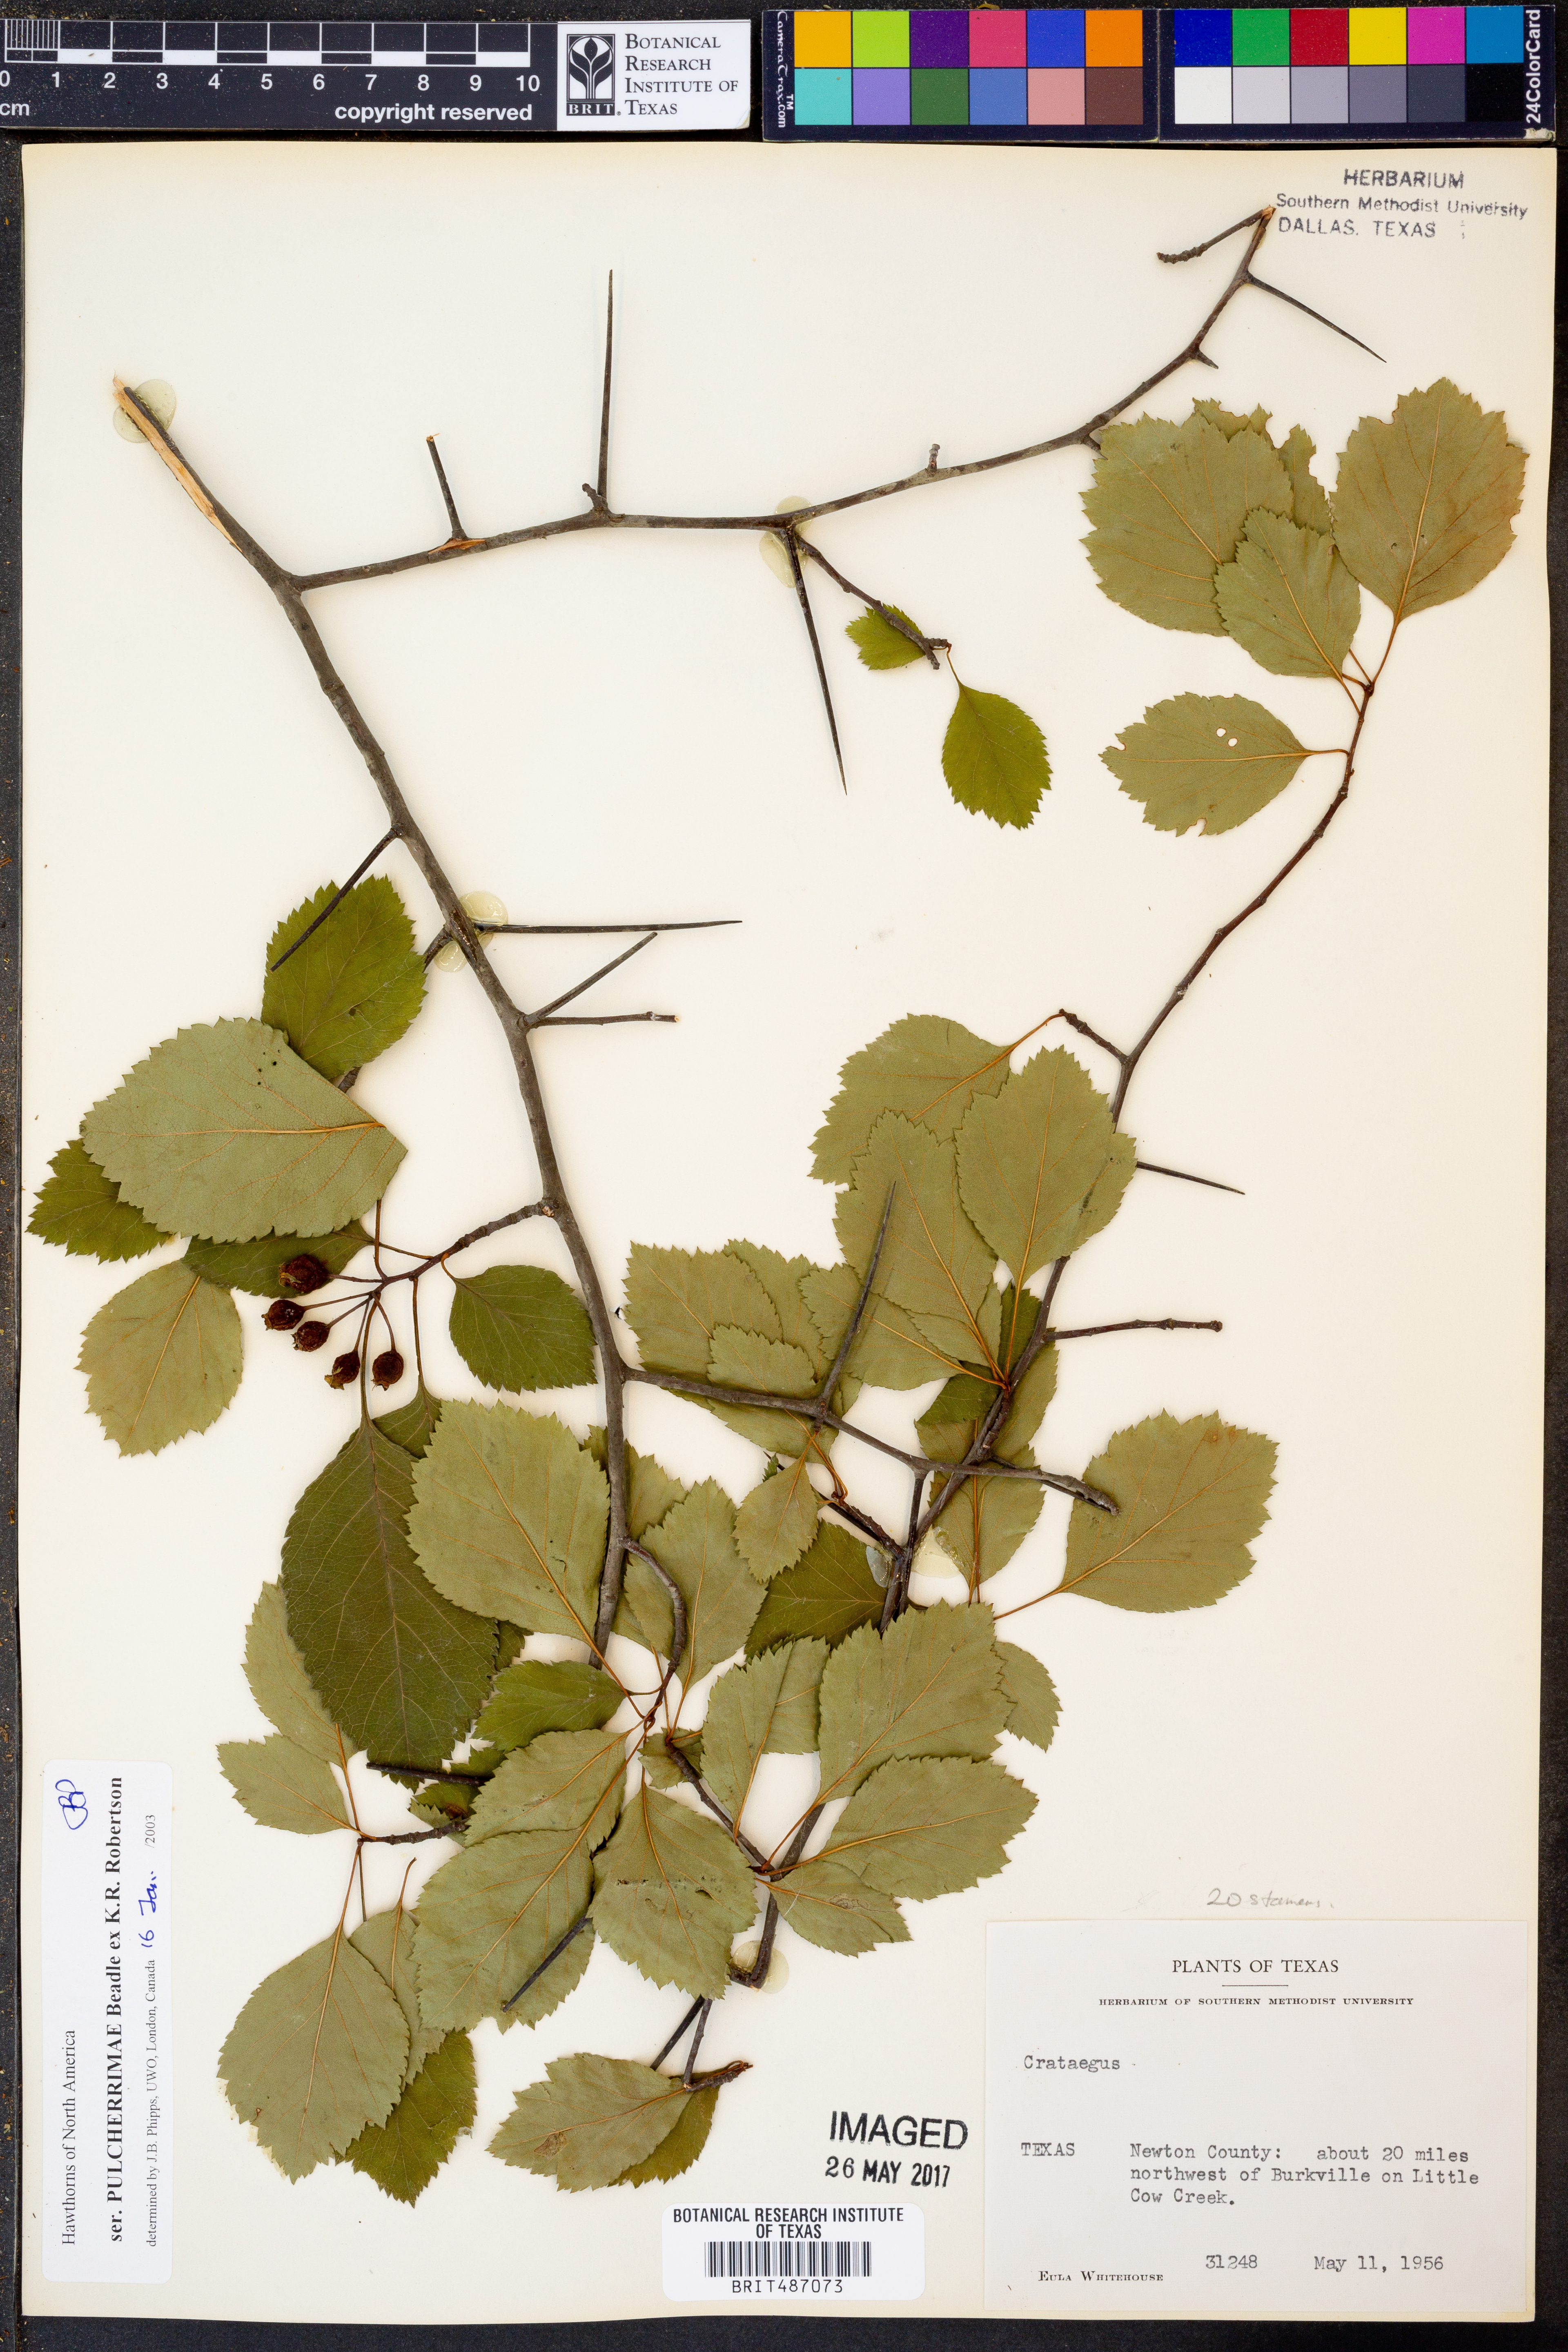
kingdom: Plantae
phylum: Tracheophyta
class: Magnoliopsida
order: Rosales
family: Rosaceae
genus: Crataegus
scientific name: Crataegus pulcherrima
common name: Beautiful hawthorn
